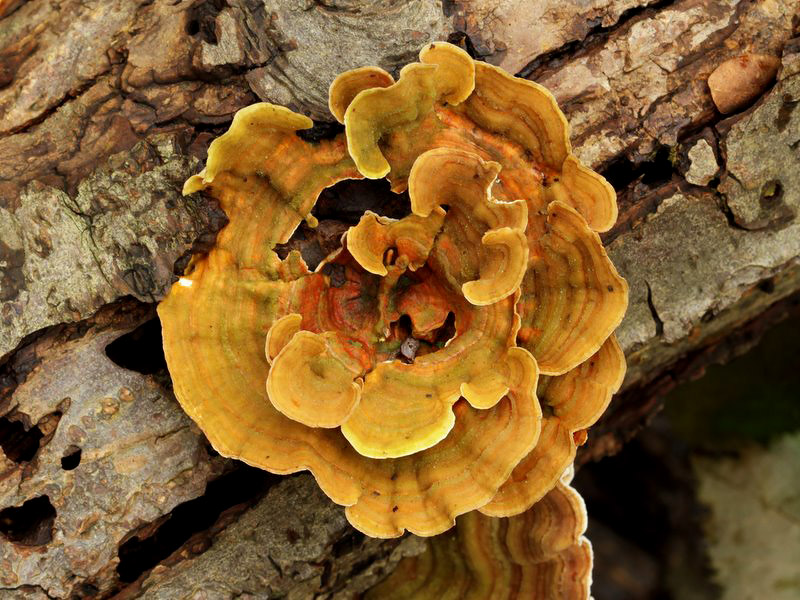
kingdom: Fungi
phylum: Basidiomycota
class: Agaricomycetes
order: Russulales
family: Stereaceae
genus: Stereum
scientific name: Stereum subtomentosum
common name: smuk lædersvamp
